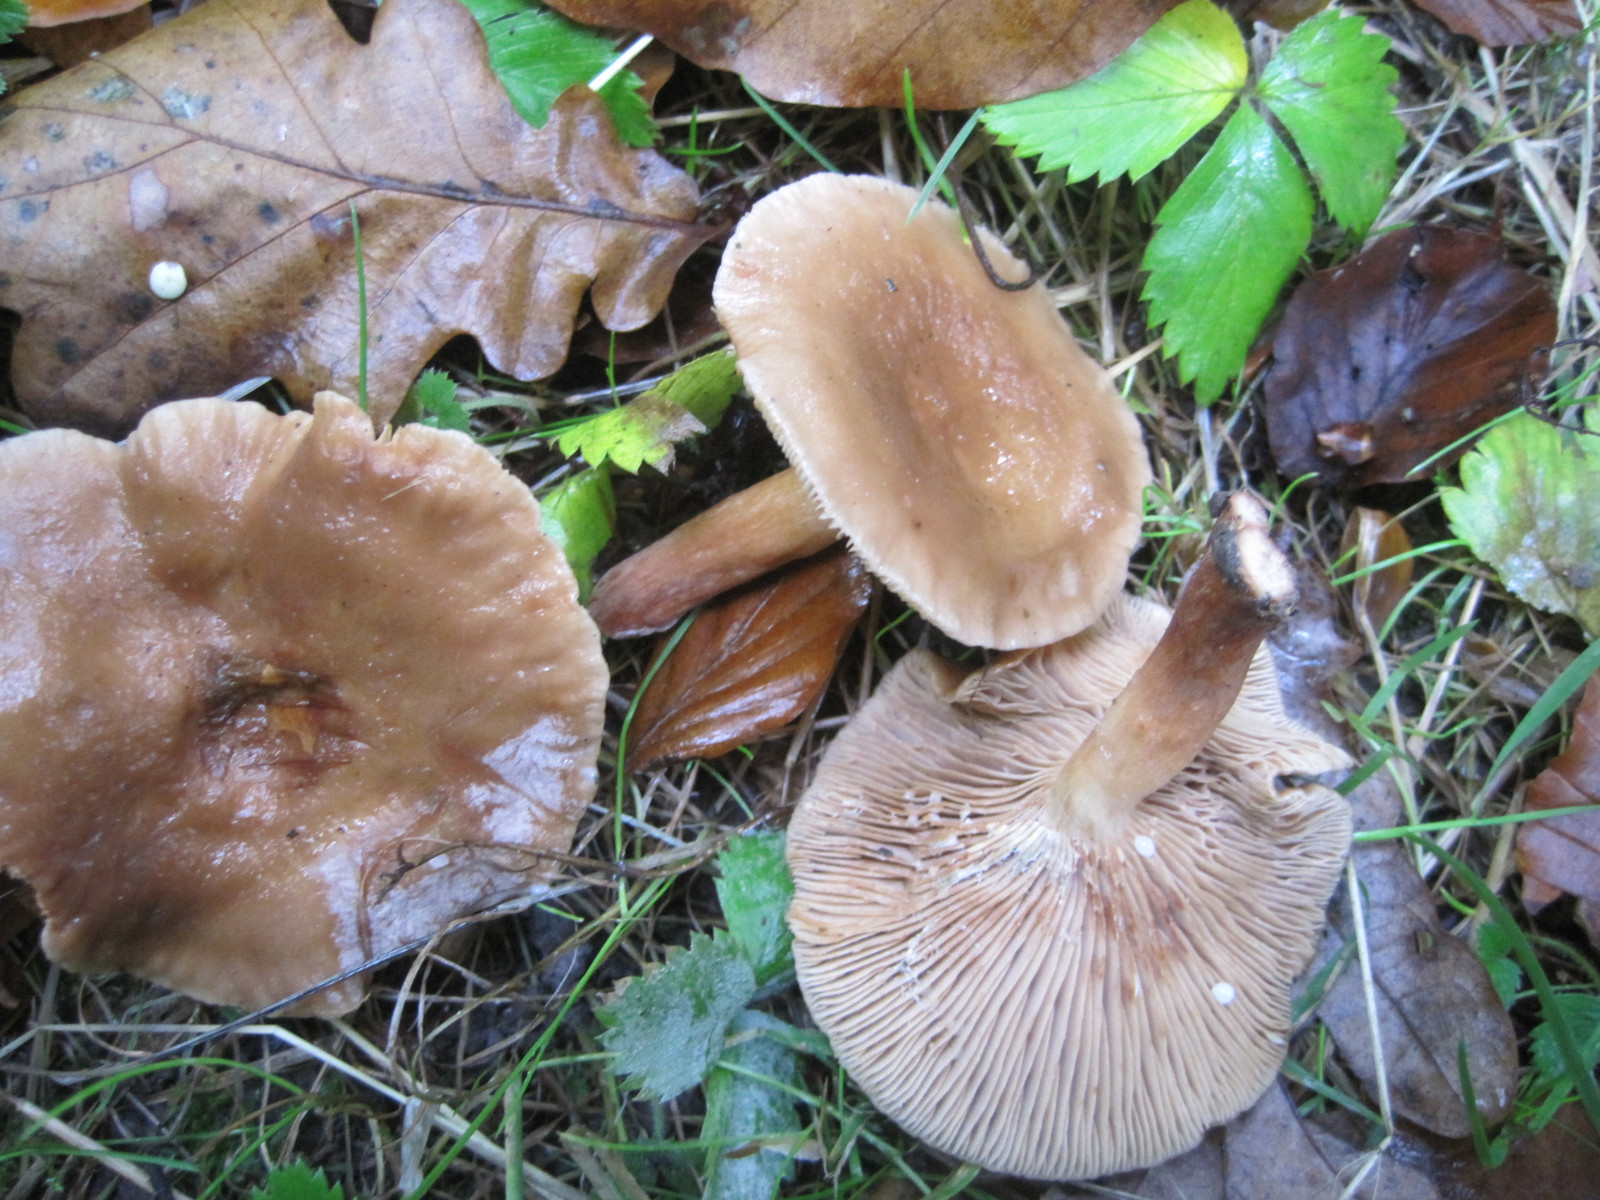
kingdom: Fungi
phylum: Basidiomycota
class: Agaricomycetes
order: Russulales
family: Russulaceae
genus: Lactarius
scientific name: Lactarius subdulcis
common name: sødlig mælkehat
